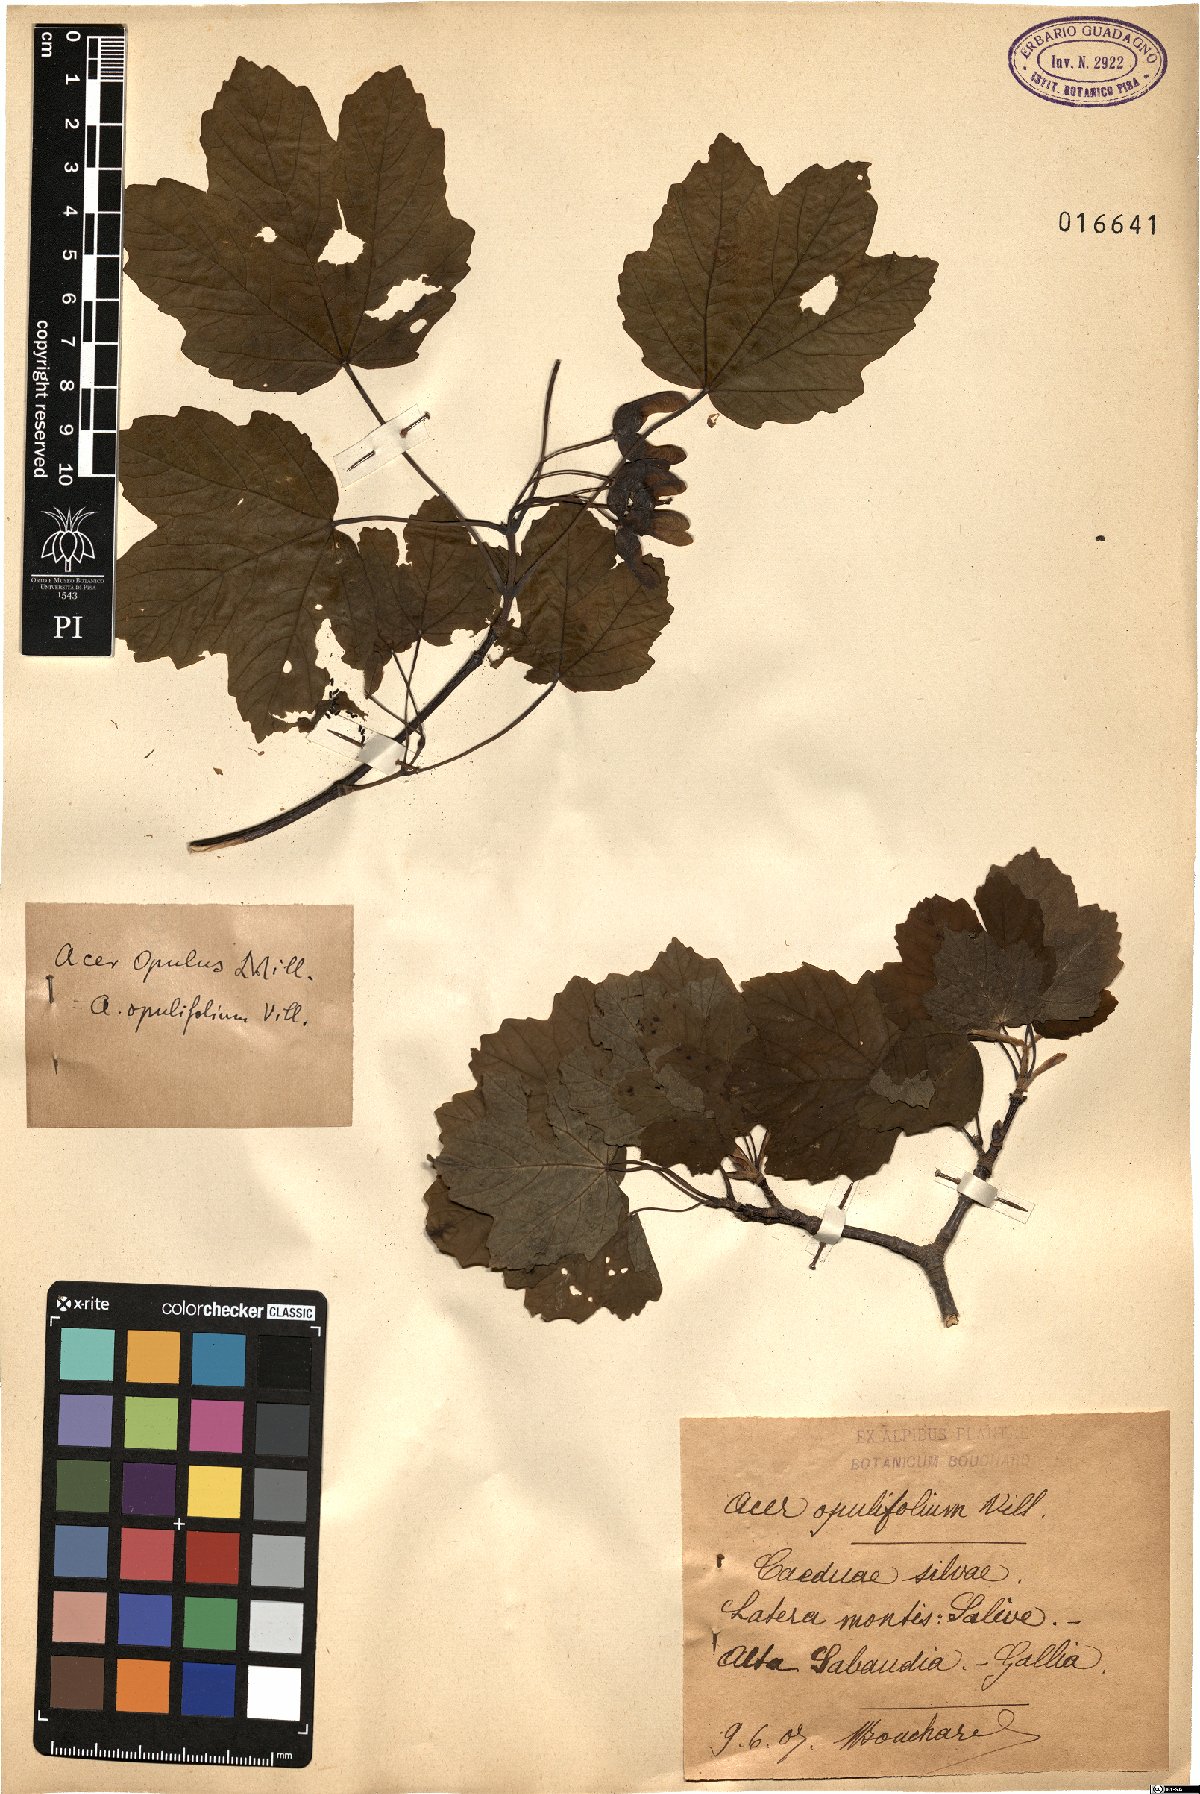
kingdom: Plantae
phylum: Tracheophyta
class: Magnoliopsida
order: Sapindales
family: Sapindaceae
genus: Acer
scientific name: Acer opalus
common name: Italian maple
